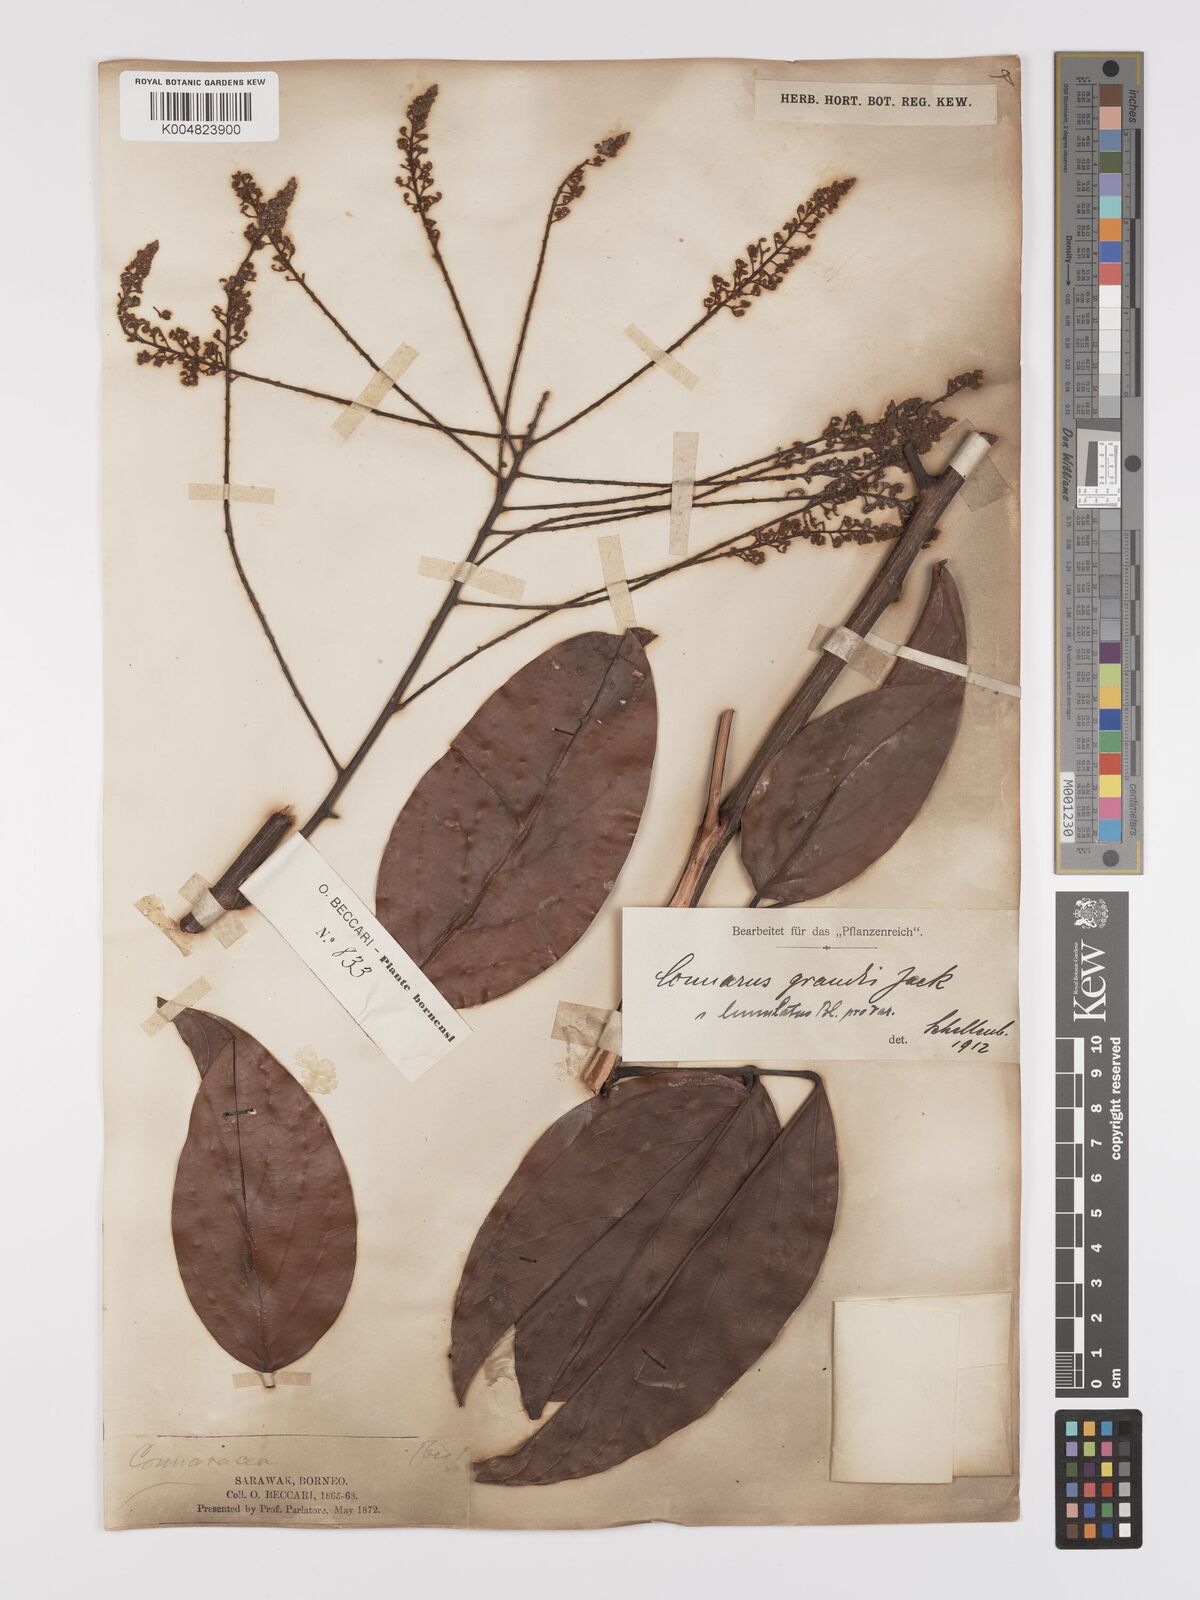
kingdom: Plantae
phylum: Tracheophyta
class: Magnoliopsida
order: Oxalidales
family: Connaraceae
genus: Connarus
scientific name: Connarus grandis
